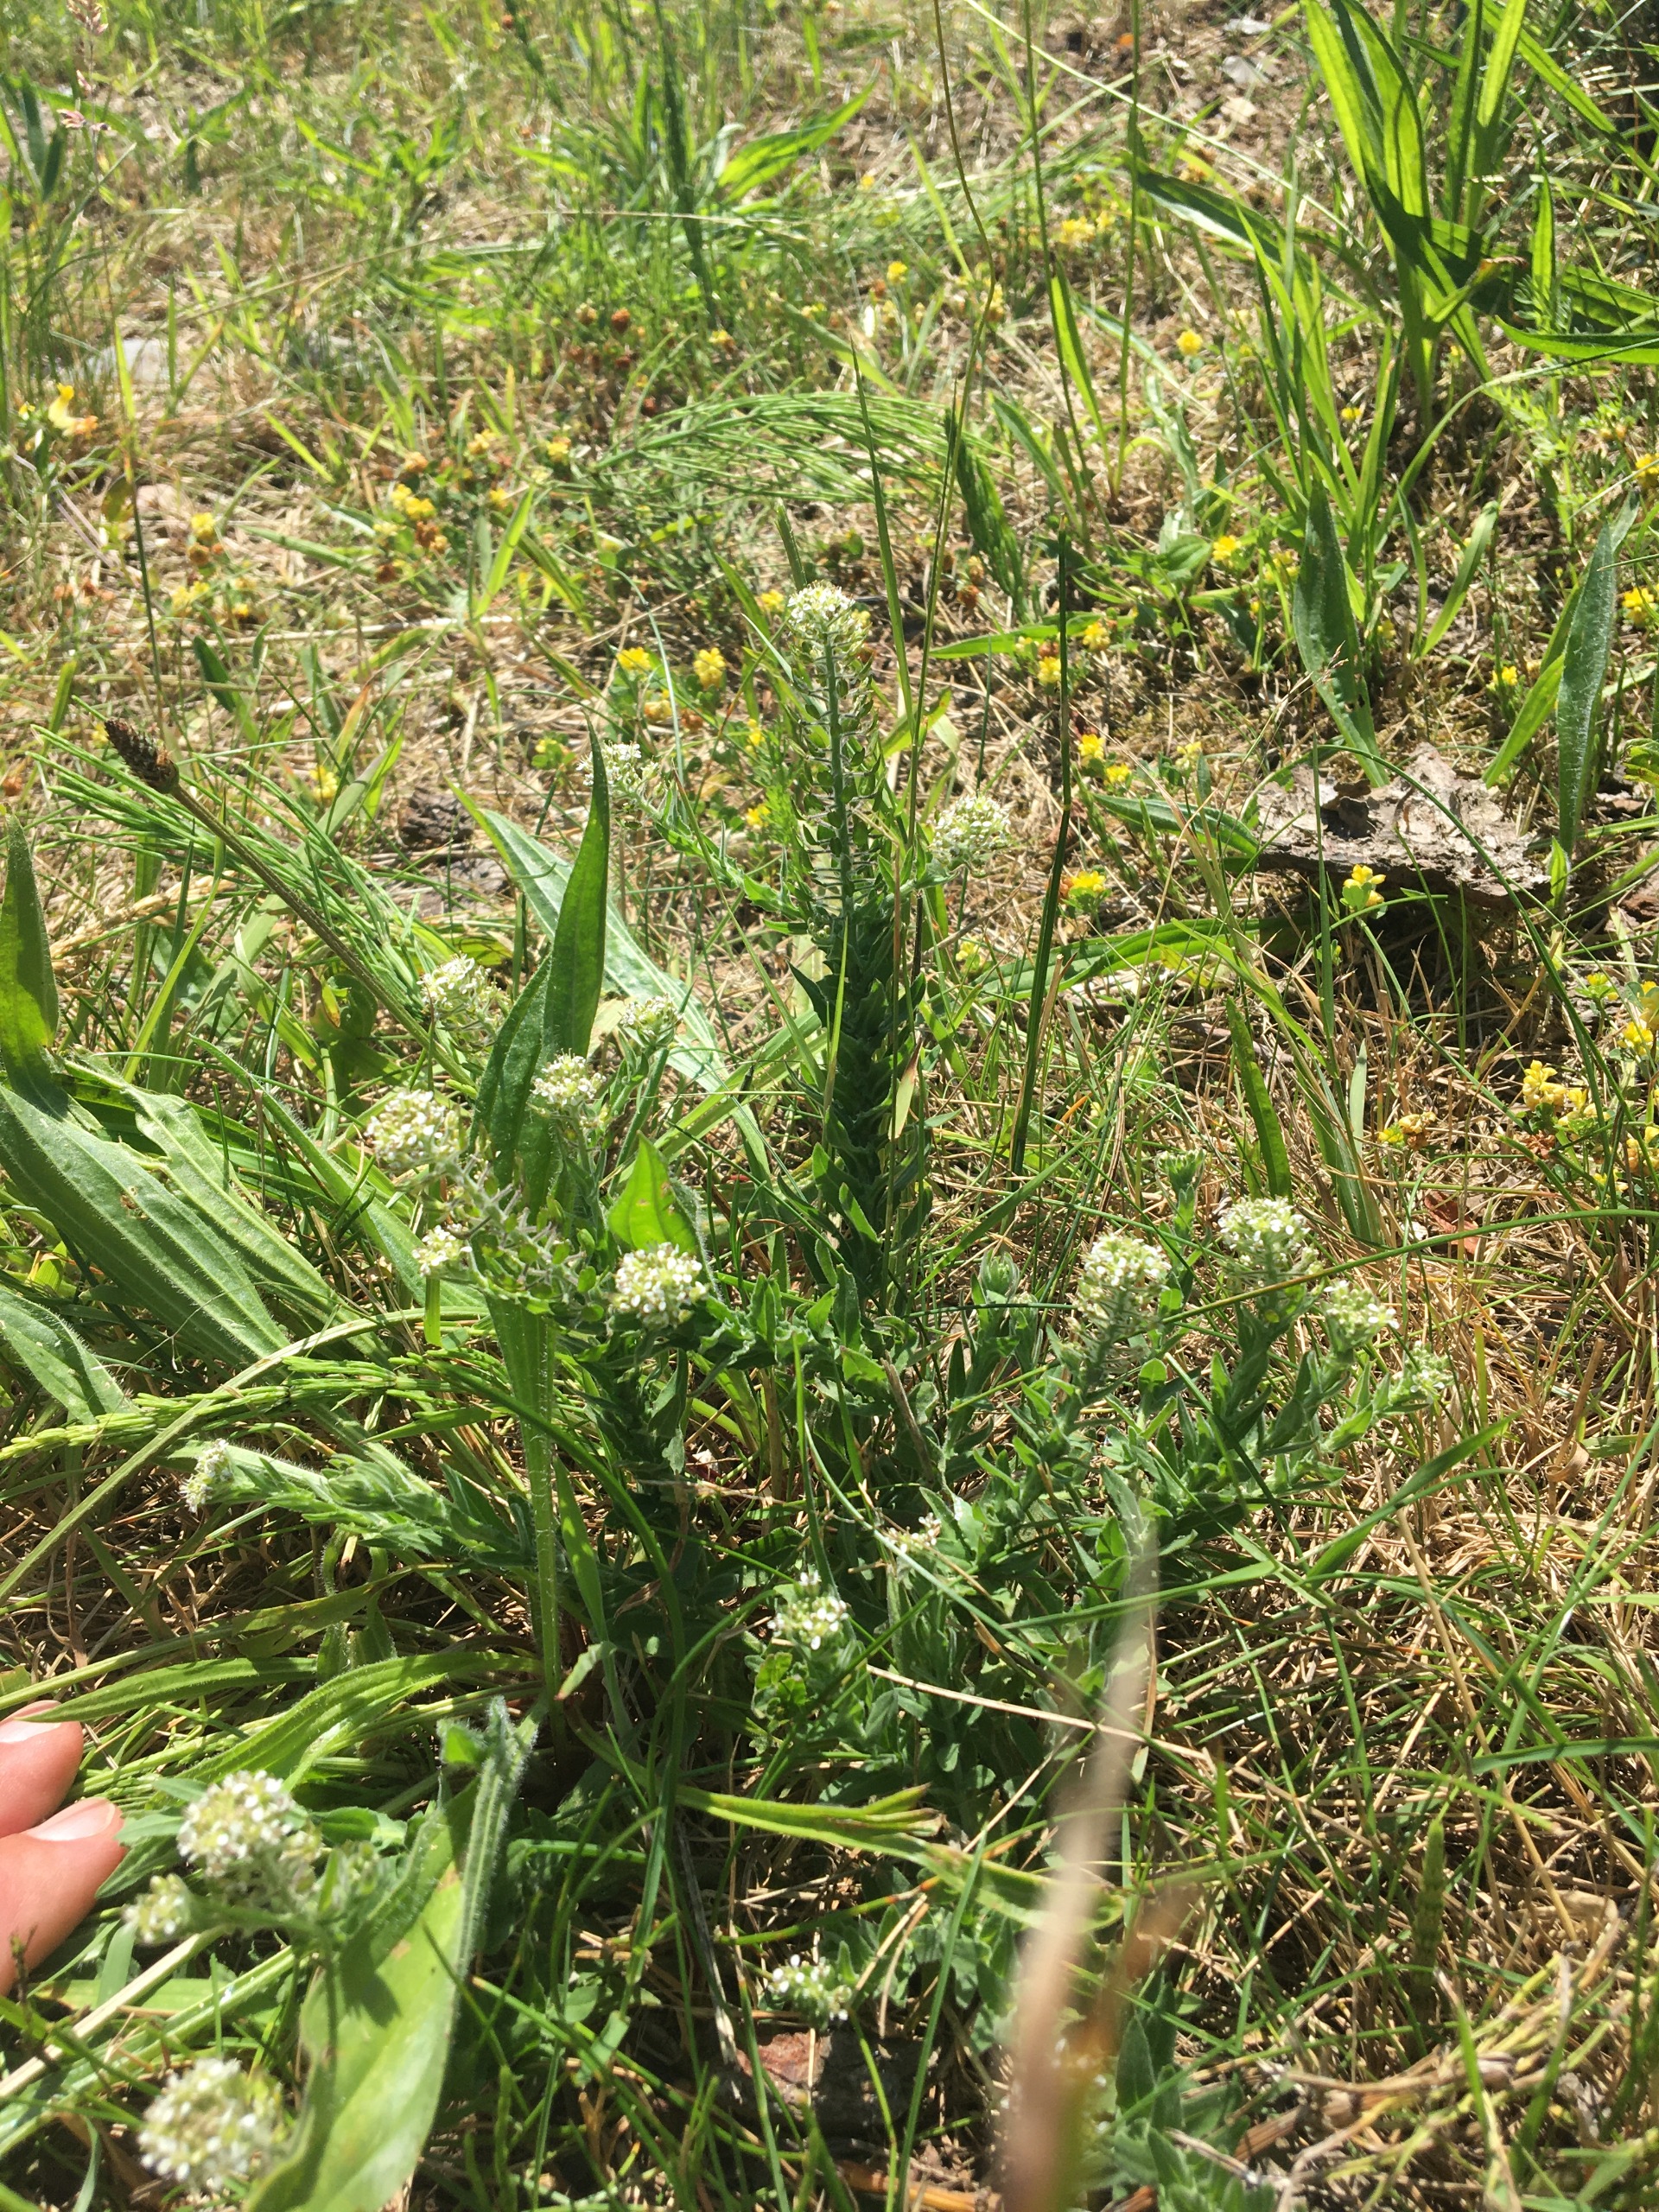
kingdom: Plantae
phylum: Tracheophyta
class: Magnoliopsida
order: Brassicales
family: Brassicaceae
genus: Lepidium
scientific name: Lepidium heterophyllum
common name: Forskelligbladet karse
